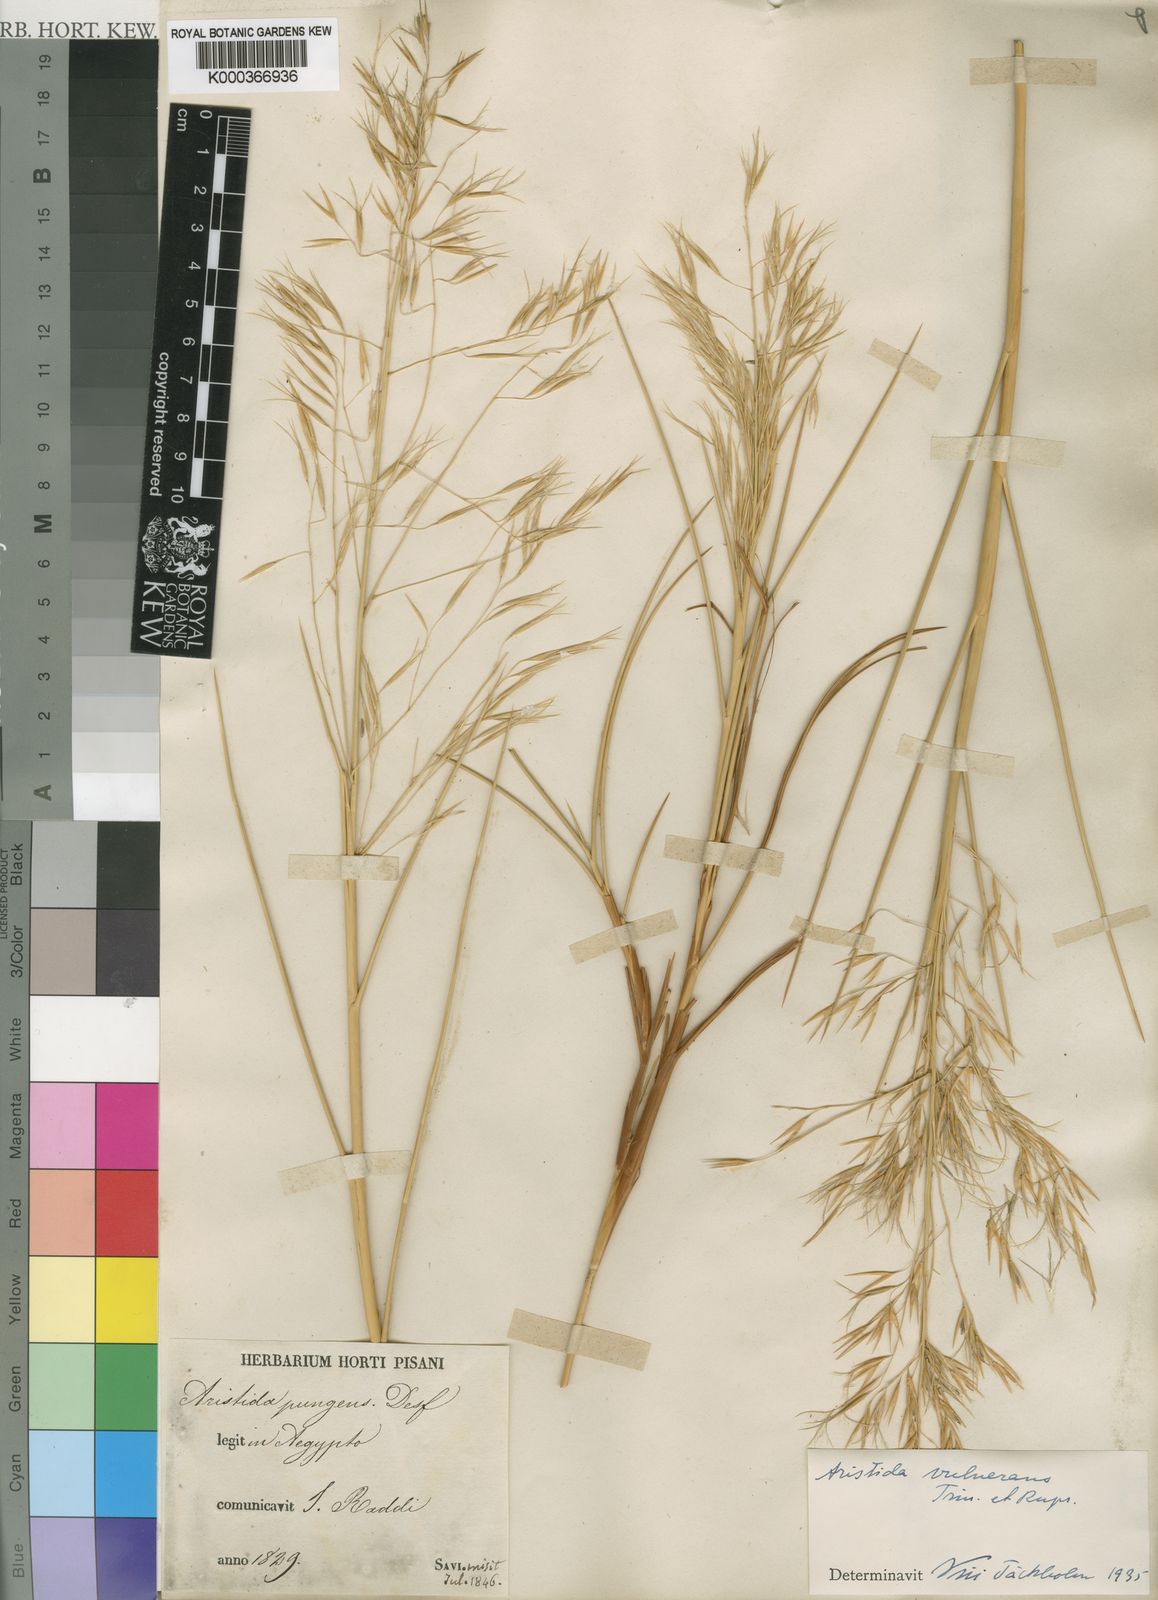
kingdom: Plantae
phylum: Tracheophyta
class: Liliopsida
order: Poales
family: Poaceae
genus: Stipagrostis
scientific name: Stipagrostis vulnerans
